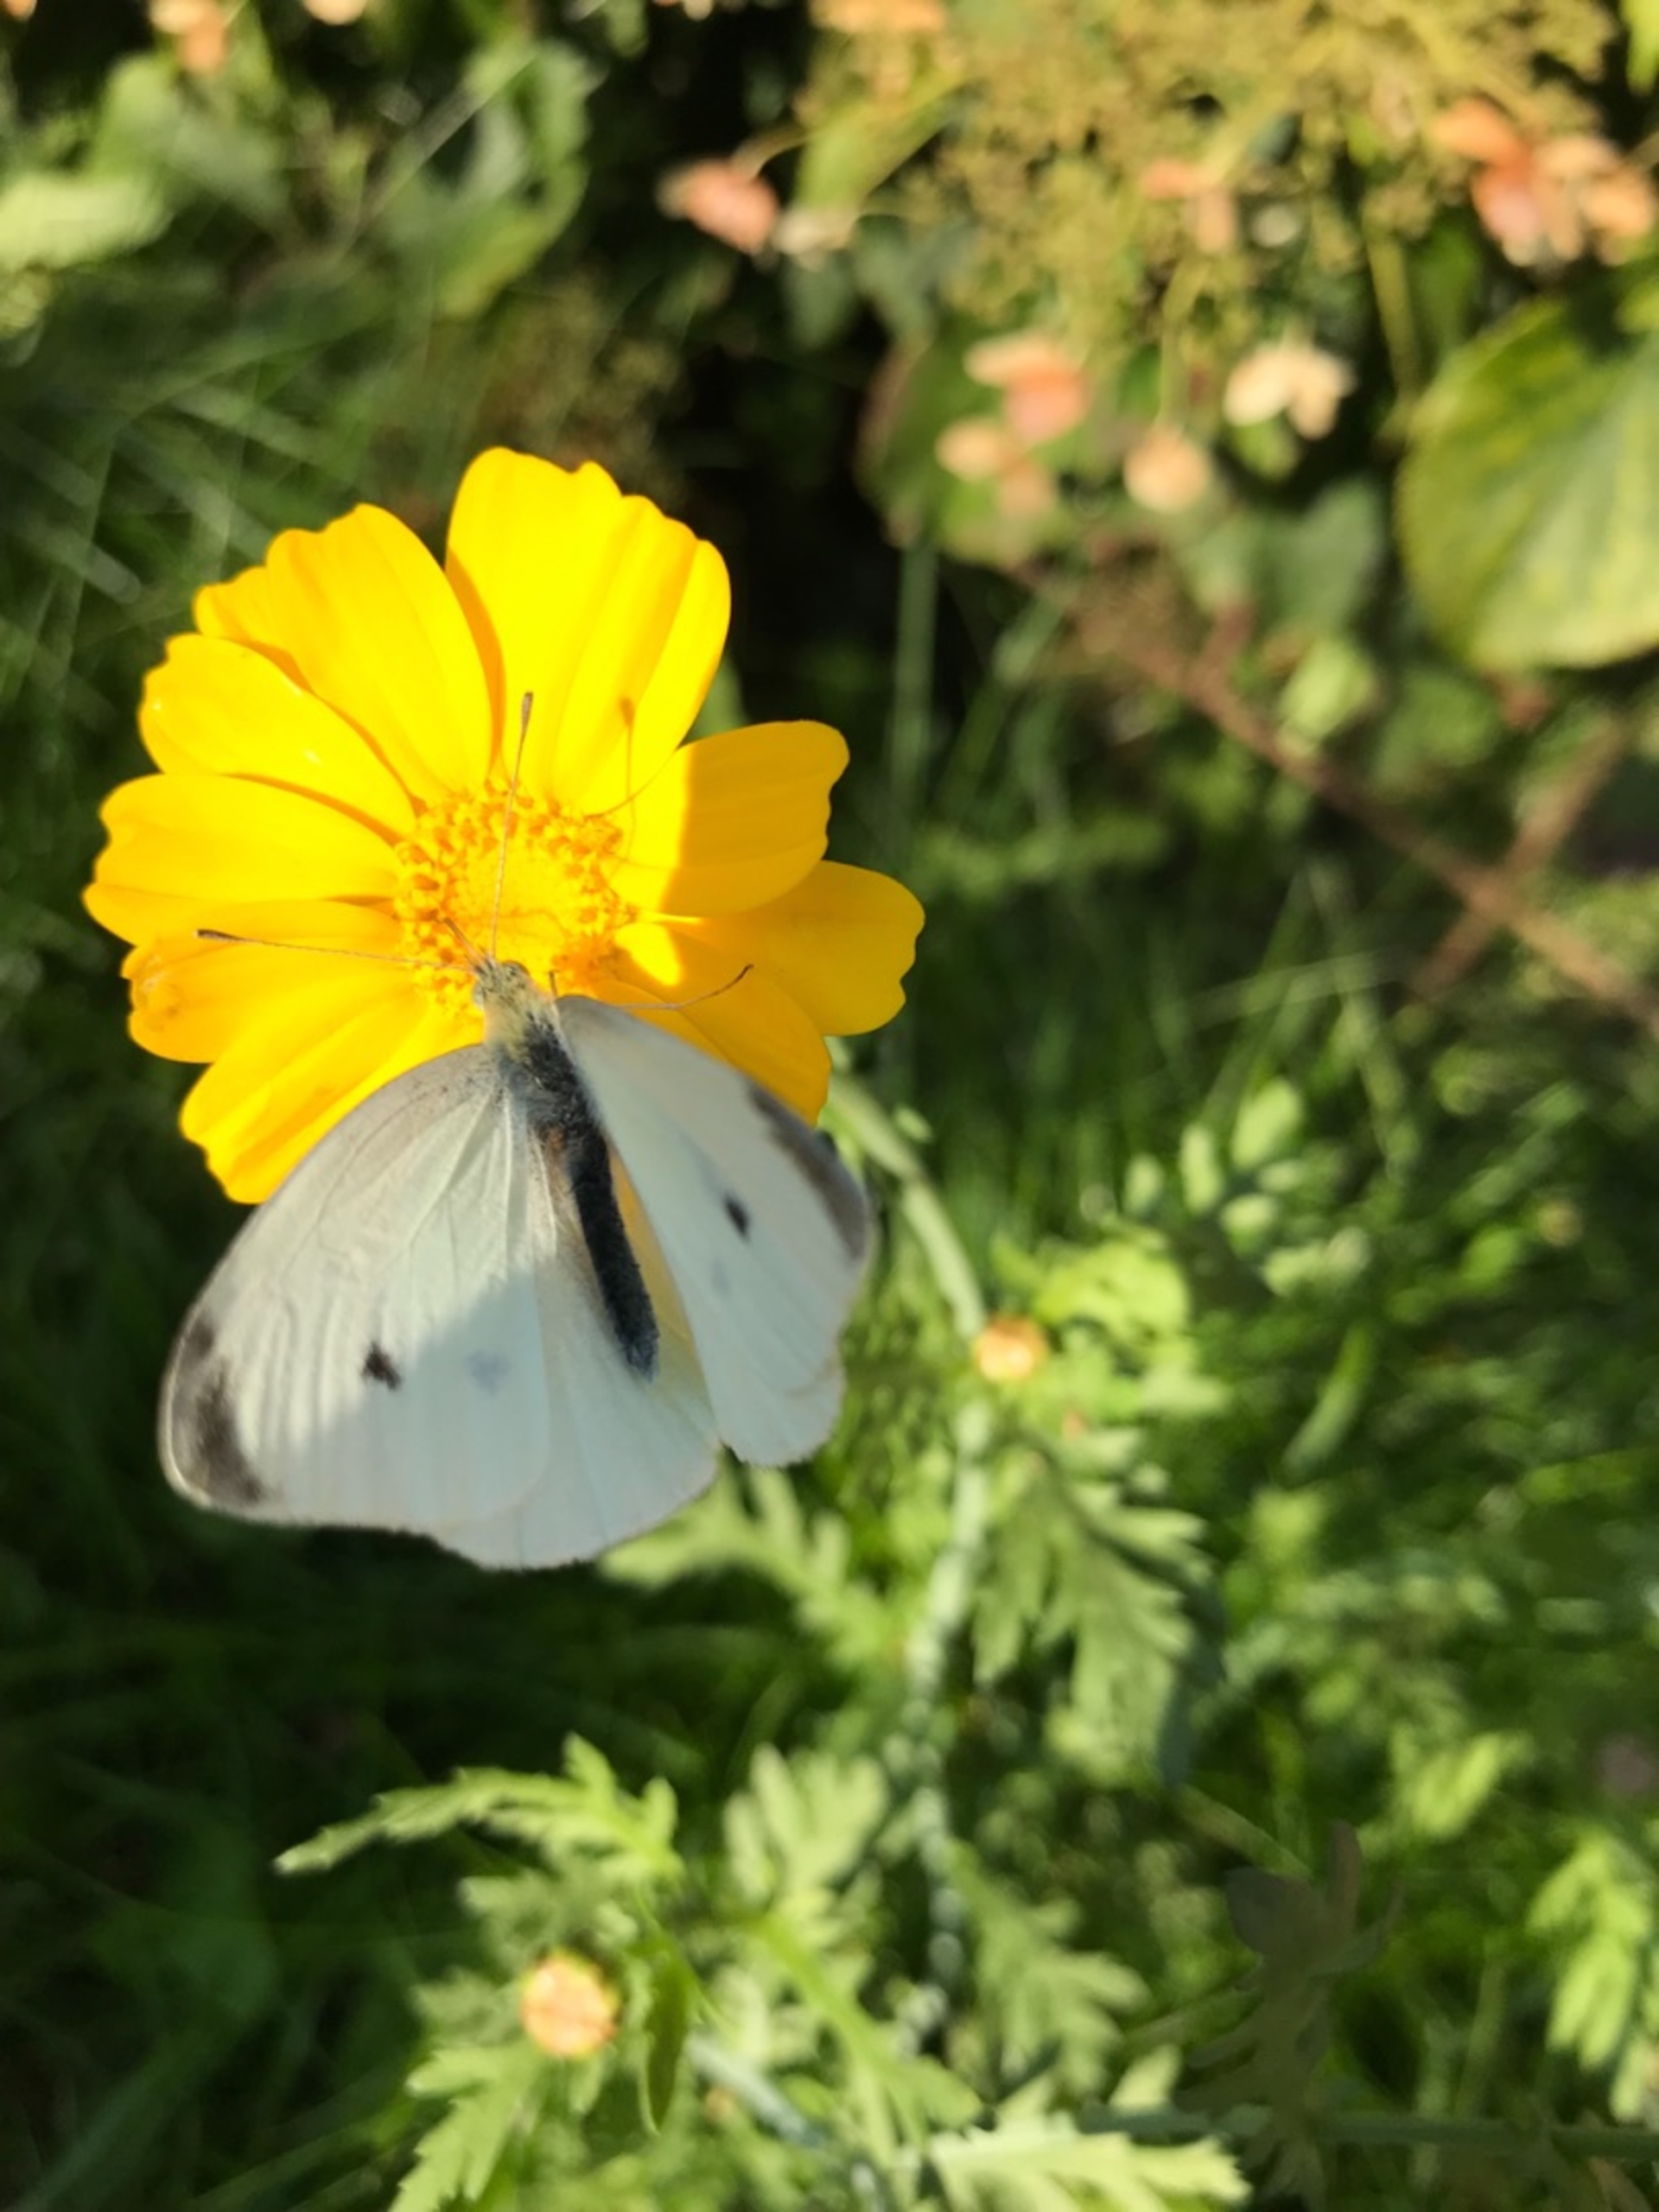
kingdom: Animalia
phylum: Arthropoda
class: Insecta
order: Lepidoptera
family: Pieridae
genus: Pieris
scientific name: Pieris rapae
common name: Lille kålsommerfugl
